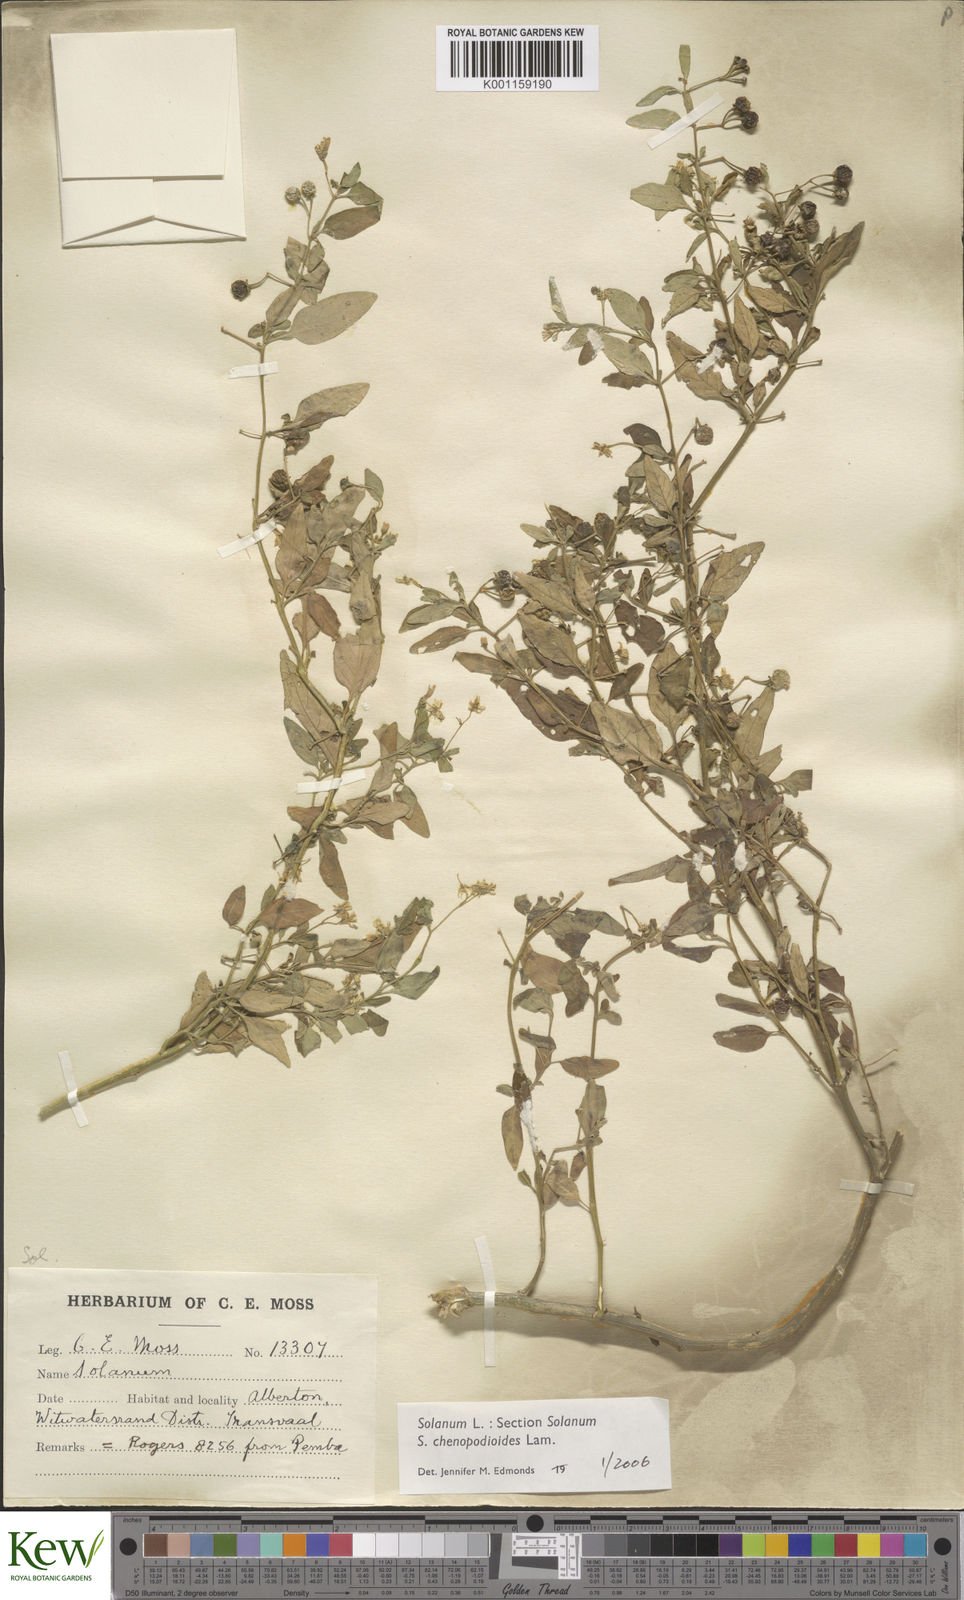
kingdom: Plantae
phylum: Tracheophyta
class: Magnoliopsida
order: Solanales
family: Solanaceae
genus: Solanum
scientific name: Solanum chenopodioides
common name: Tall nightshade
